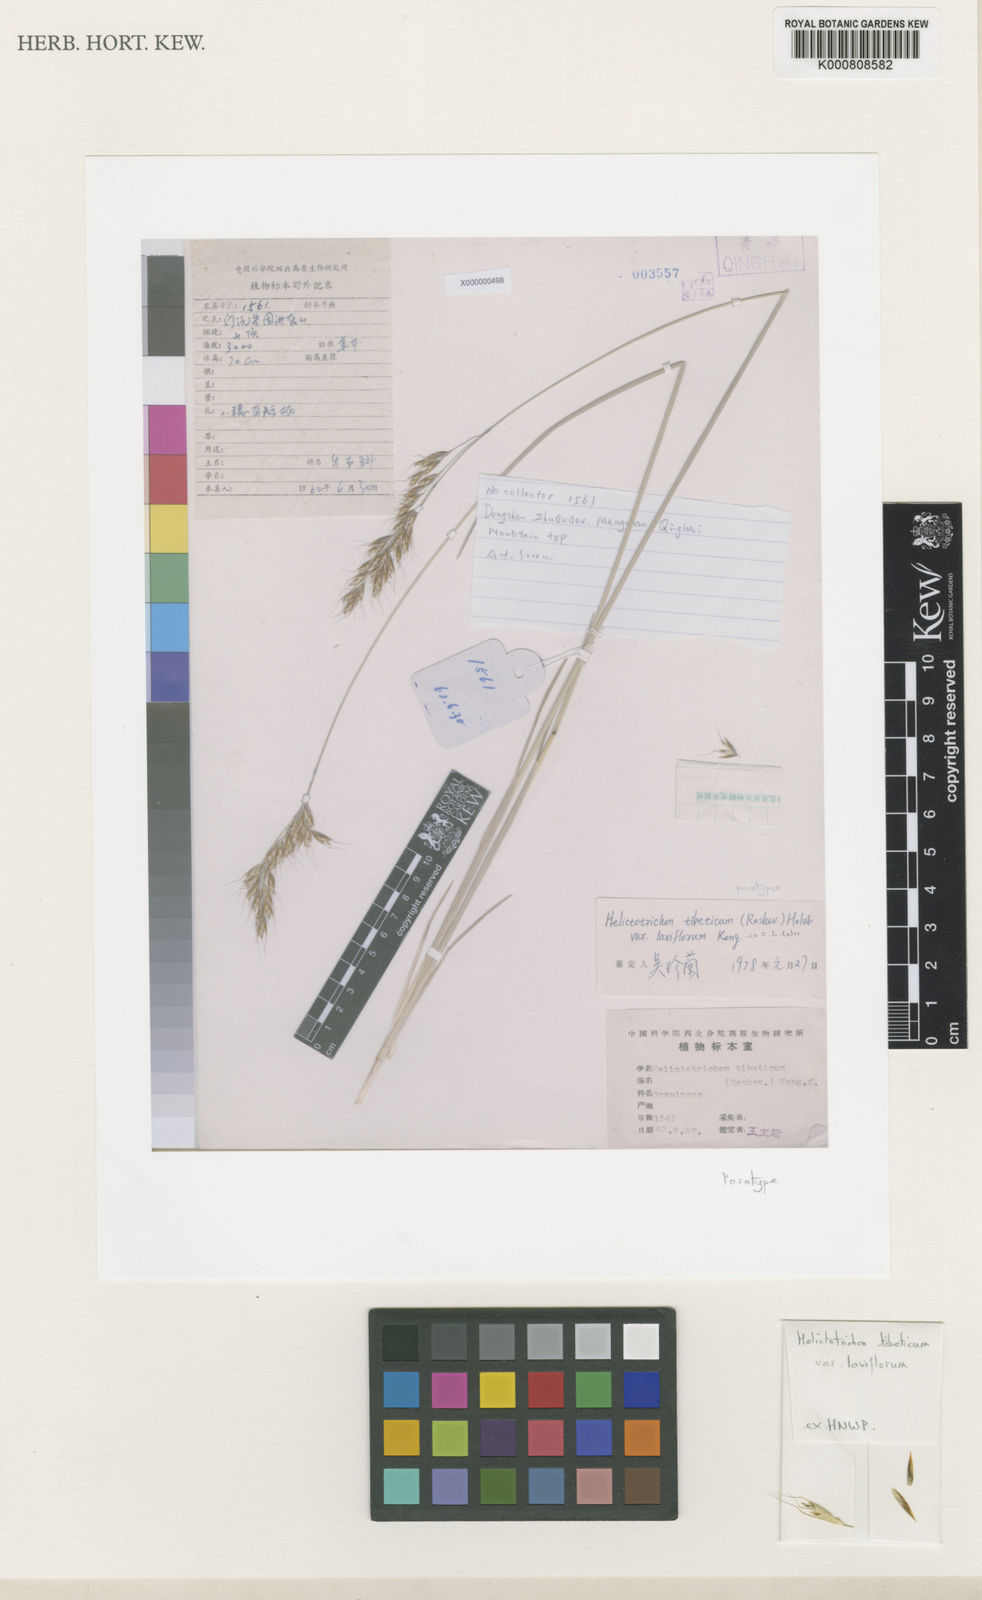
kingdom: Plantae
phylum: Tracheophyta
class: Liliopsida
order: Poales
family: Poaceae
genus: Helictotrichon
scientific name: Helictotrichon tibeticum
